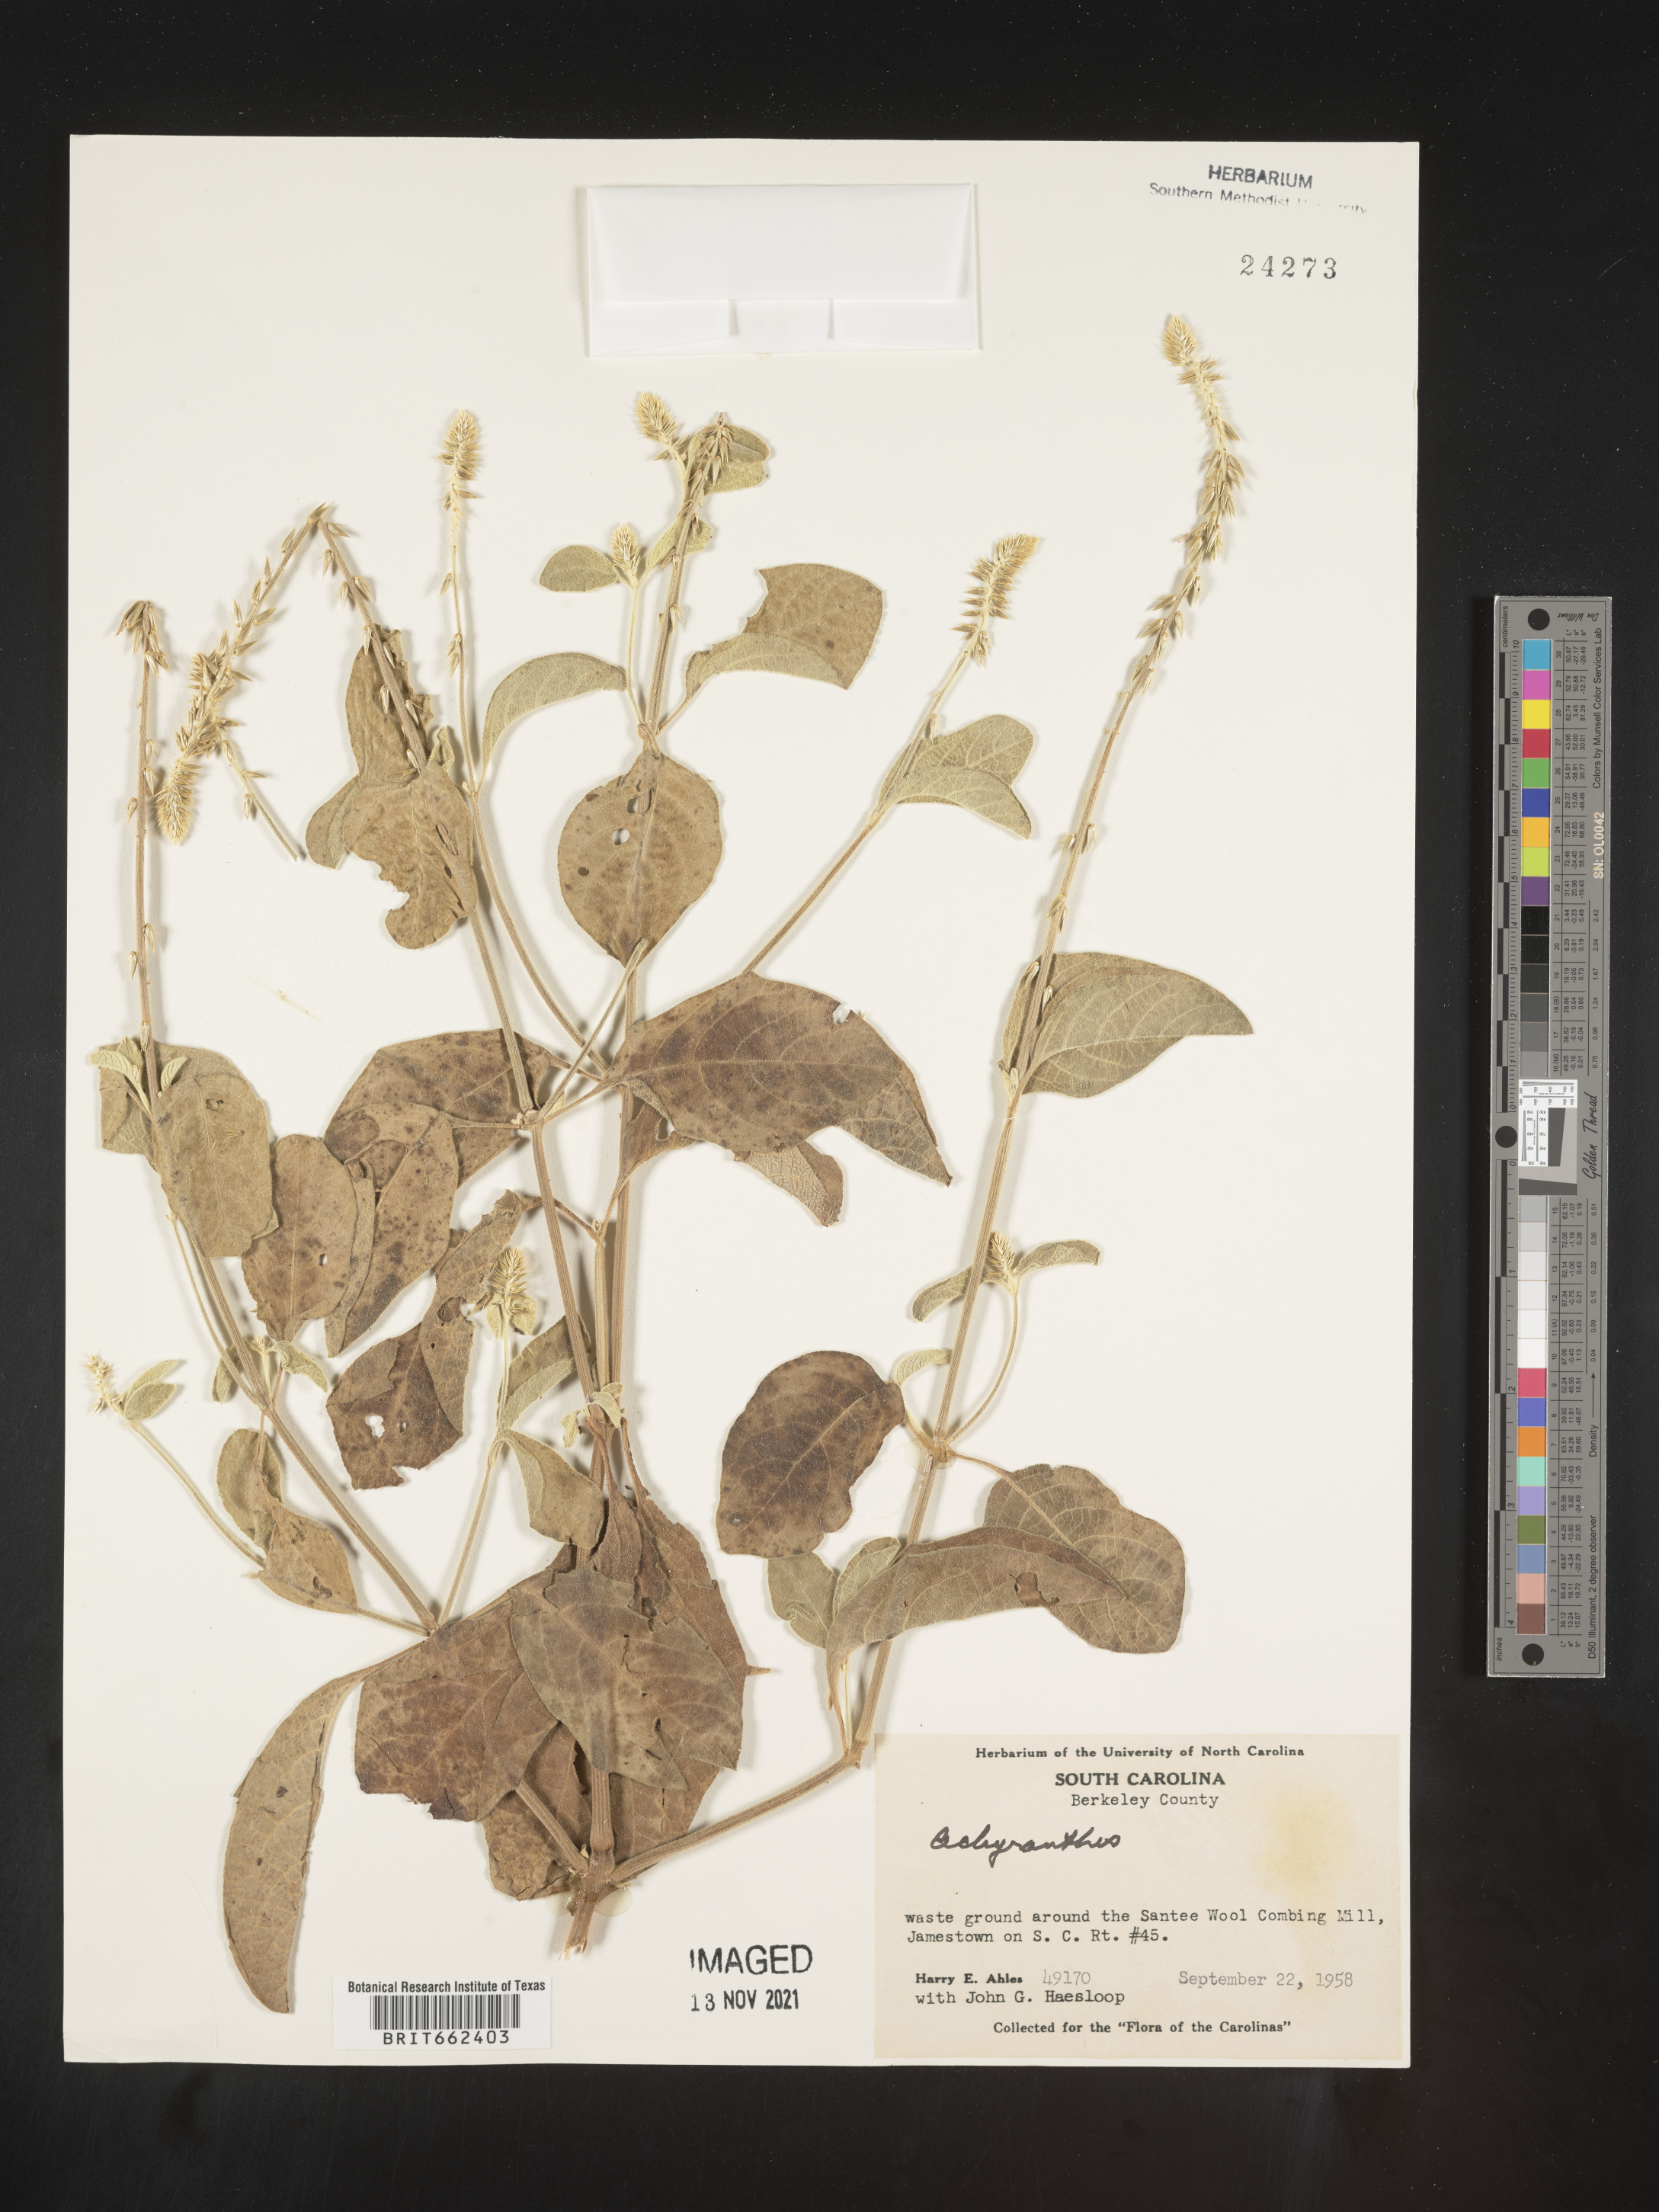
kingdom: Plantae
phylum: Tracheophyta
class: Magnoliopsida
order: Caryophyllales
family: Amaranthaceae
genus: Achyranthes
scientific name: Achyranthes
